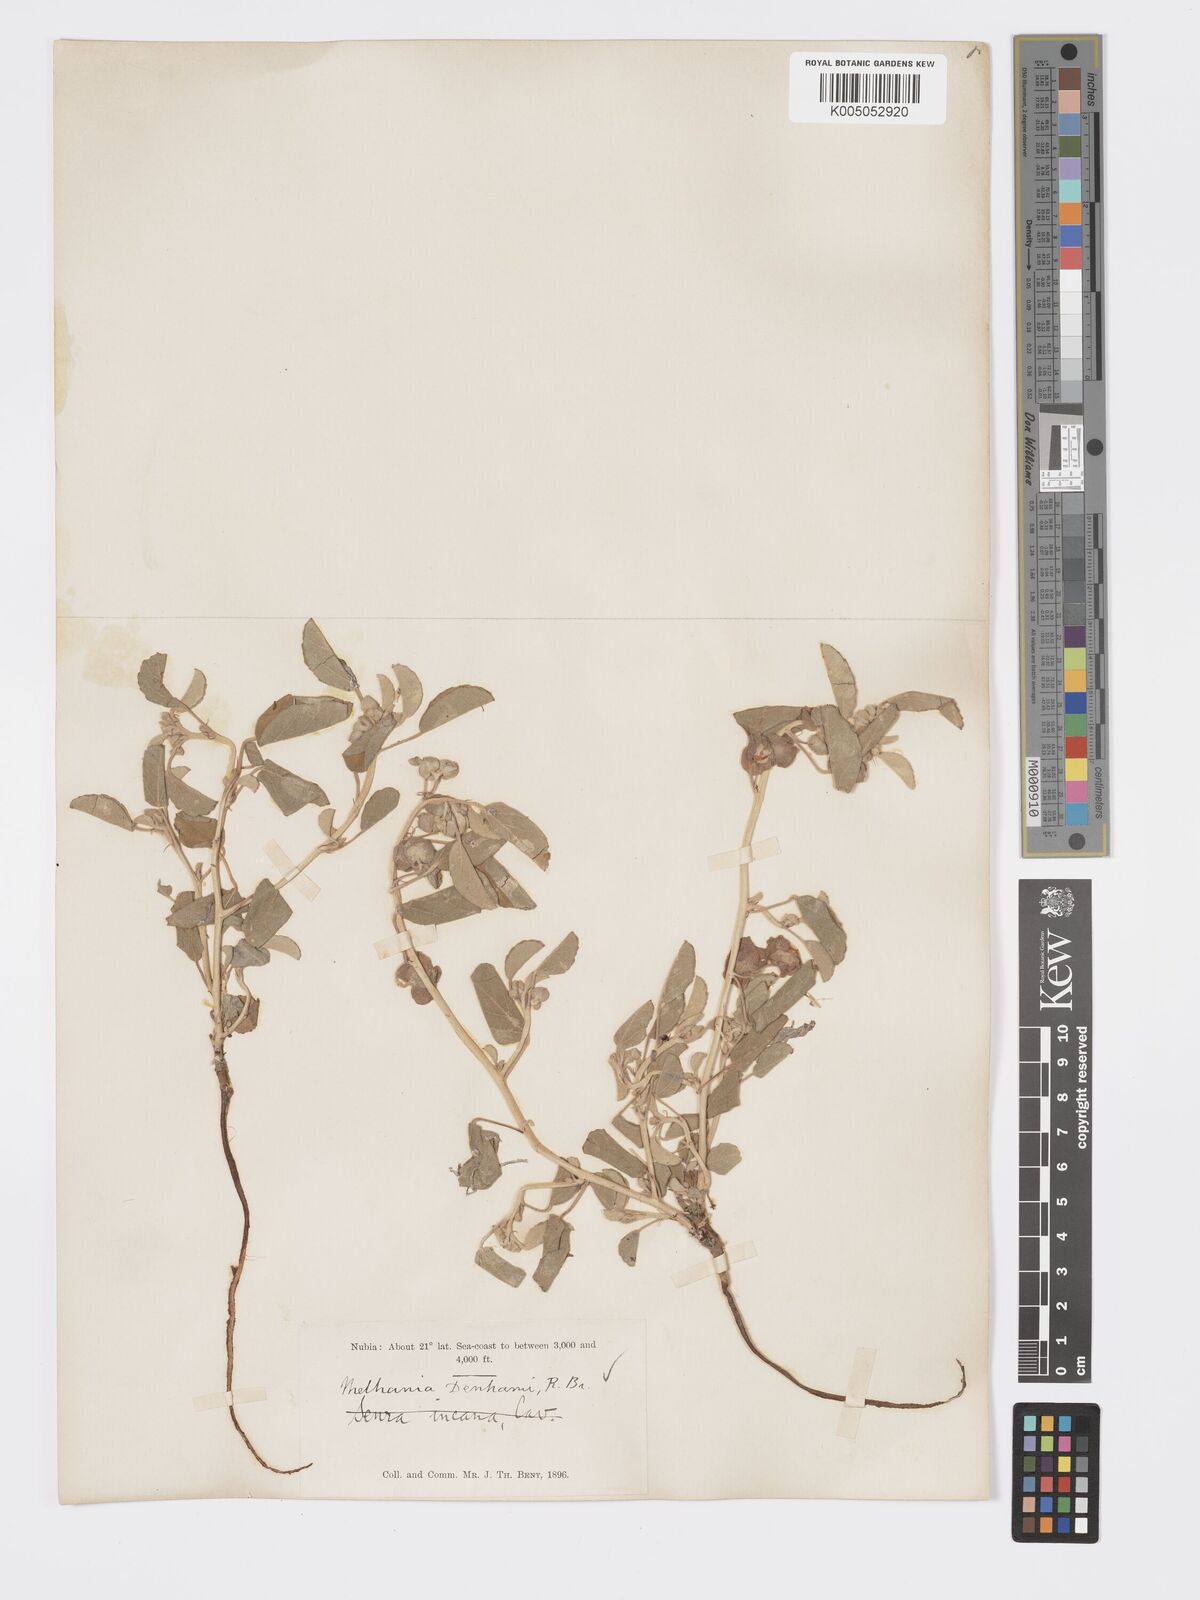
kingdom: Plantae
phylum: Tracheophyta
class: Magnoliopsida
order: Malvales
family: Malvaceae
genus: Melhania
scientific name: Melhania denhamii
